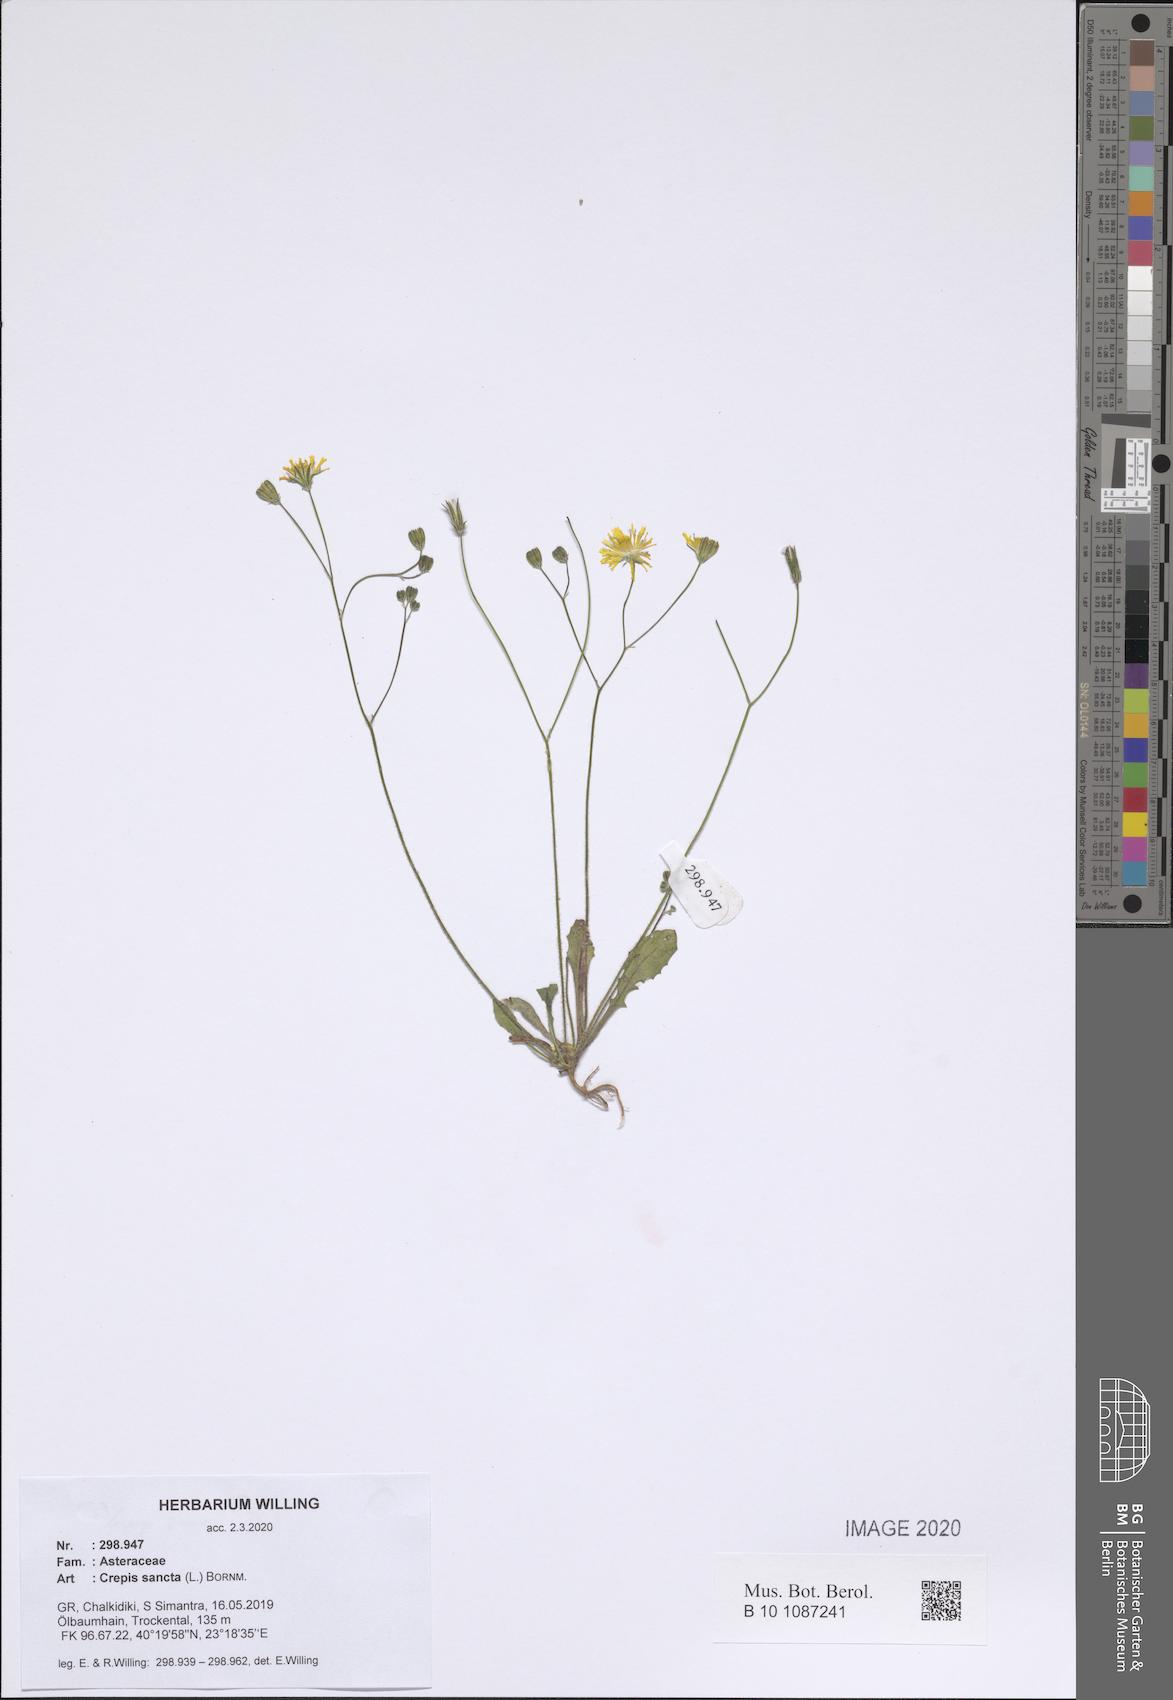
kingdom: Plantae
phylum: Tracheophyta
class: Magnoliopsida
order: Asterales
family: Asteraceae
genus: Crepis
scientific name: Crepis sancta
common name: Hawk's-beard
